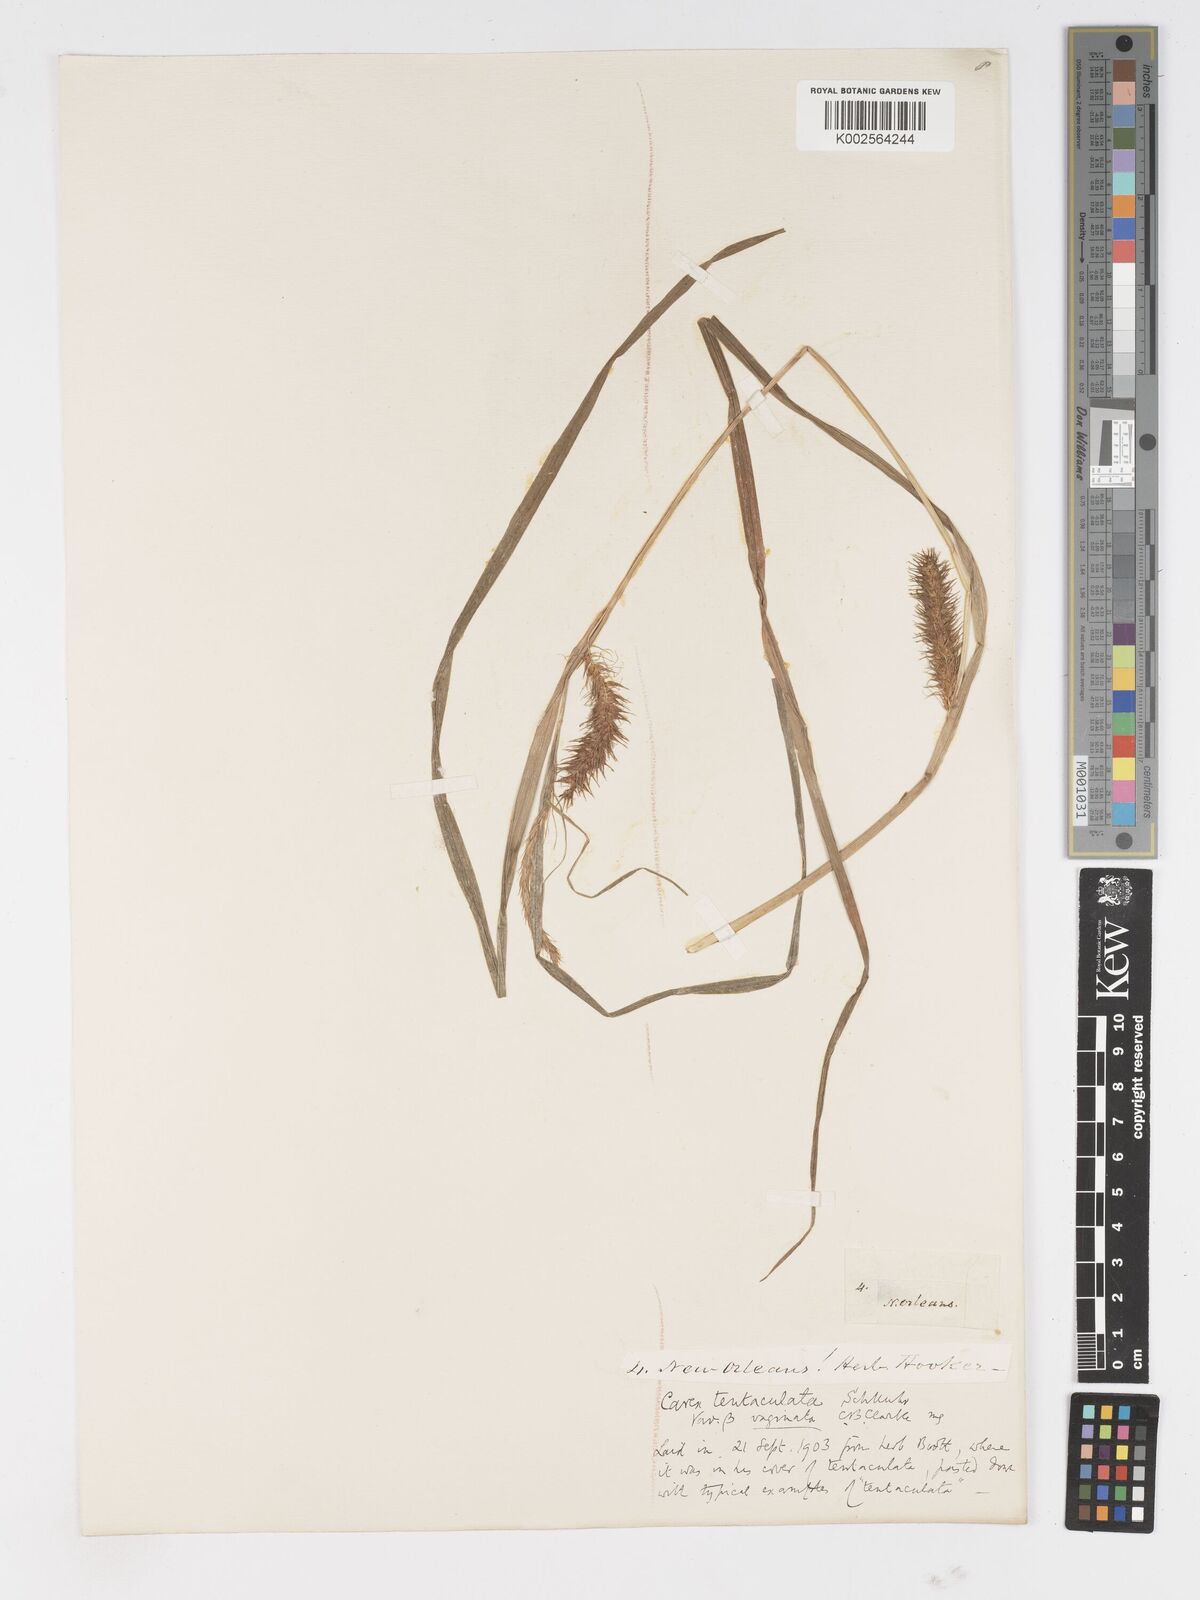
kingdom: Plantae
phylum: Tracheophyta
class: Liliopsida
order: Poales
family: Cyperaceae
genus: Carex
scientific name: Carex lurida
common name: Sallow sedge
